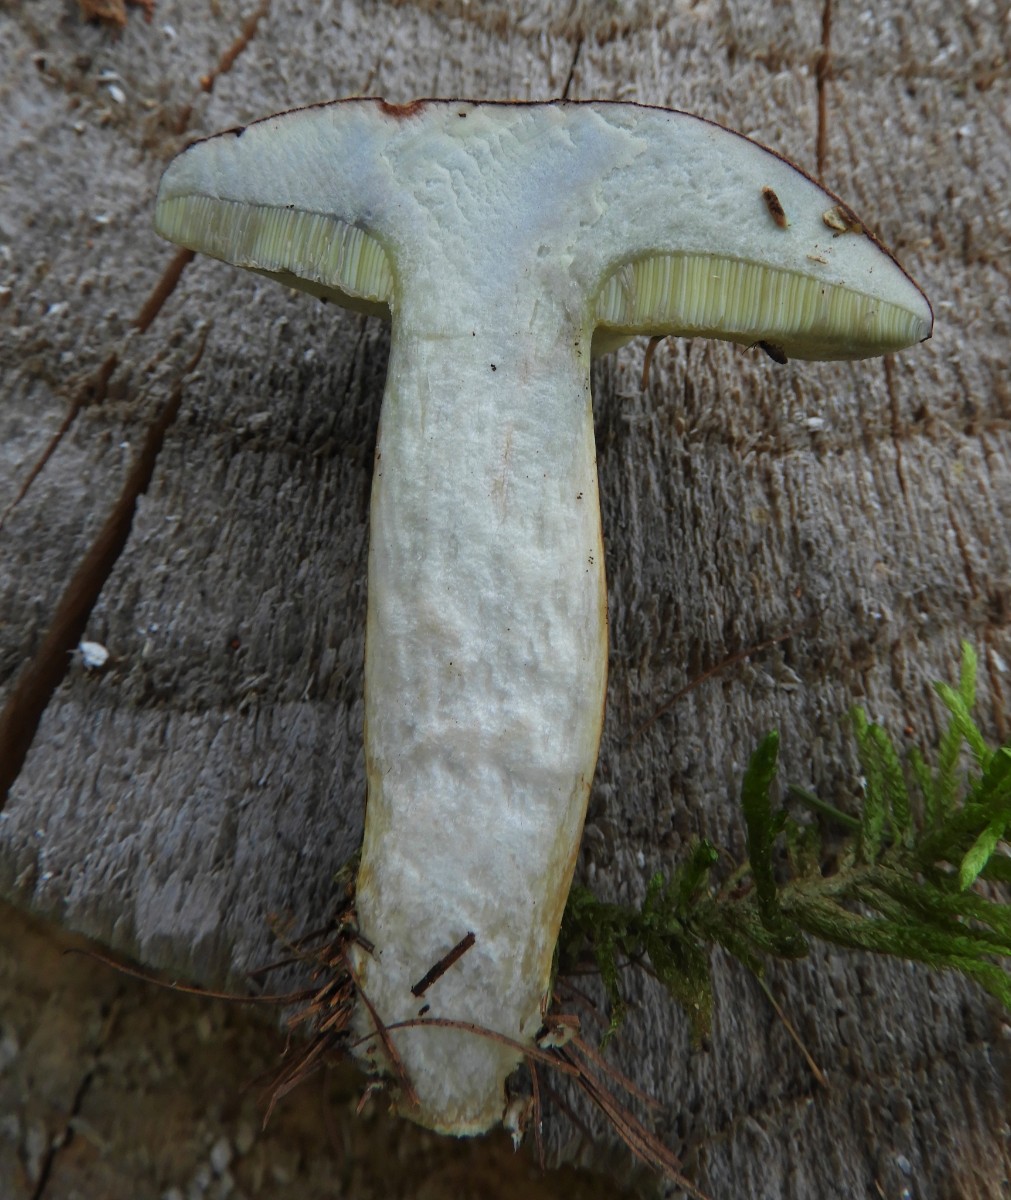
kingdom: Fungi
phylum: Basidiomycota
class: Agaricomycetes
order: Boletales
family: Boletaceae
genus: Imleria
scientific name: Imleria badia
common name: brunstokket rørhat
